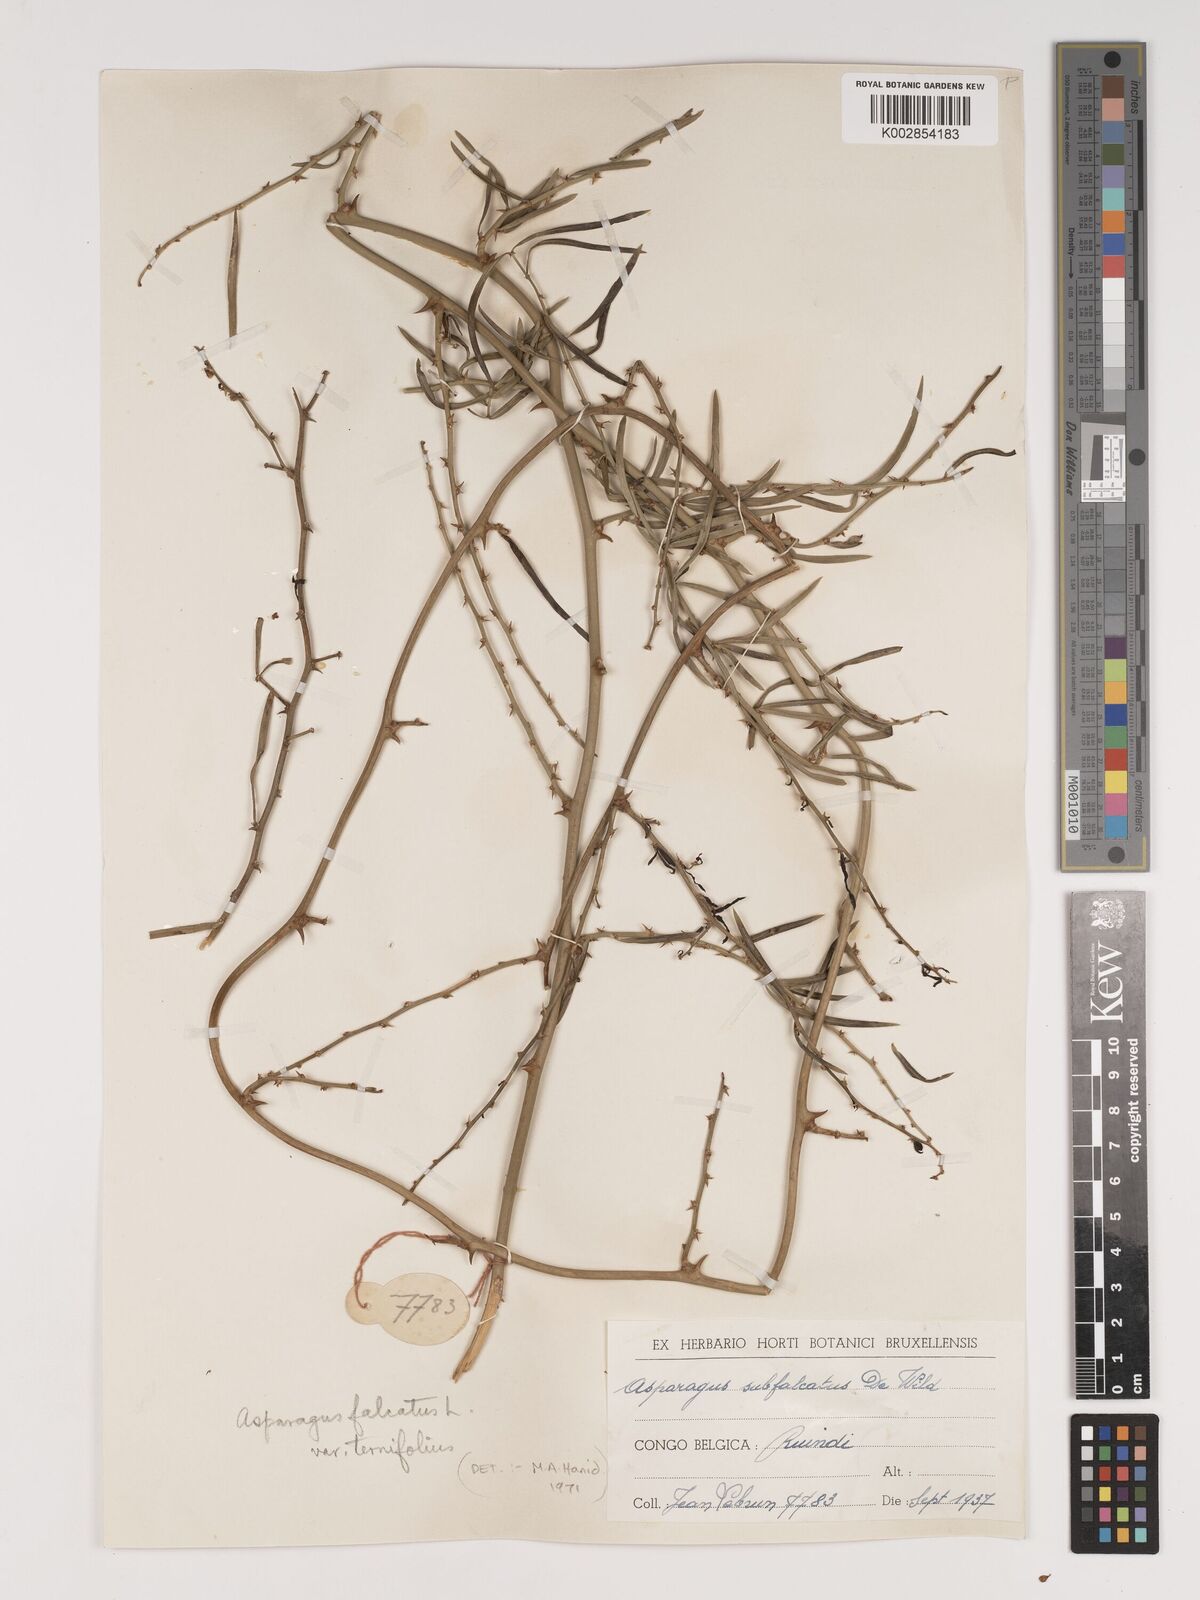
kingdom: Plantae
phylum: Tracheophyta
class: Liliopsida
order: Asparagales
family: Asparagaceae
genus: Asparagus
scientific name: Asparagus falcatus
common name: Asparagus
